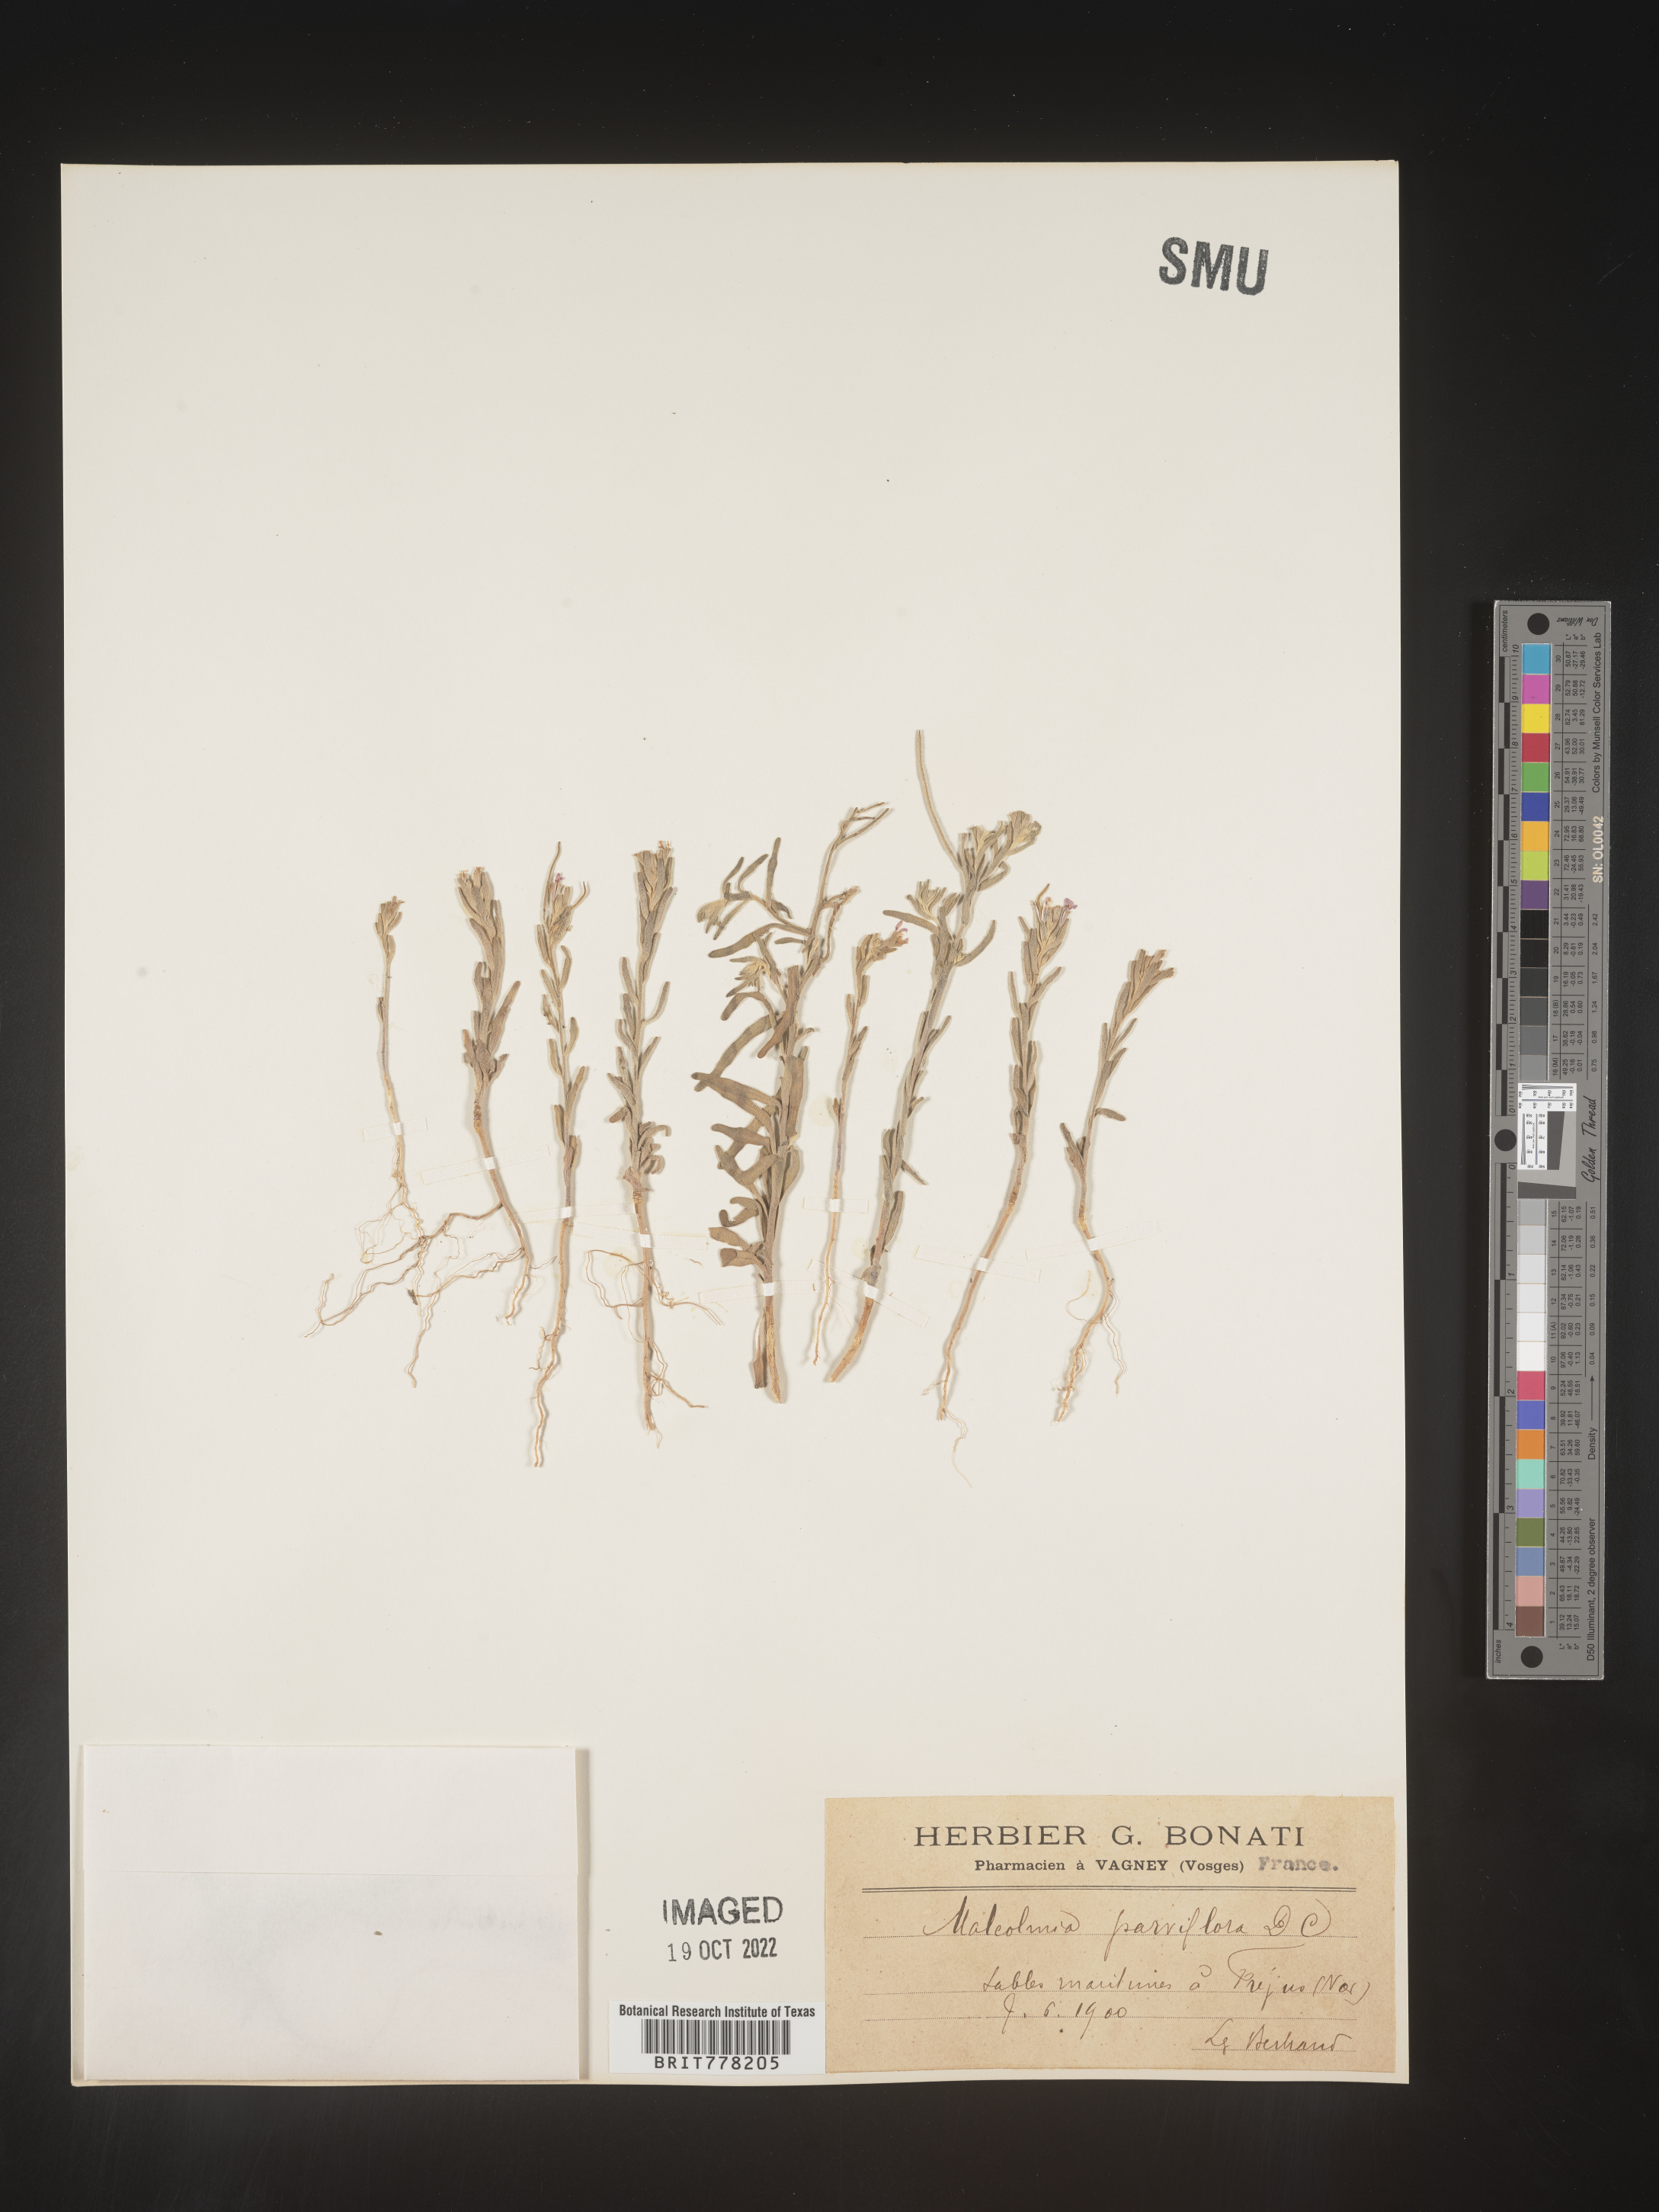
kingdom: Plantae
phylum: Tracheophyta
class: Magnoliopsida
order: Brassicales
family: Brassicaceae
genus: Malcolmia
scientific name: Malcolmia
